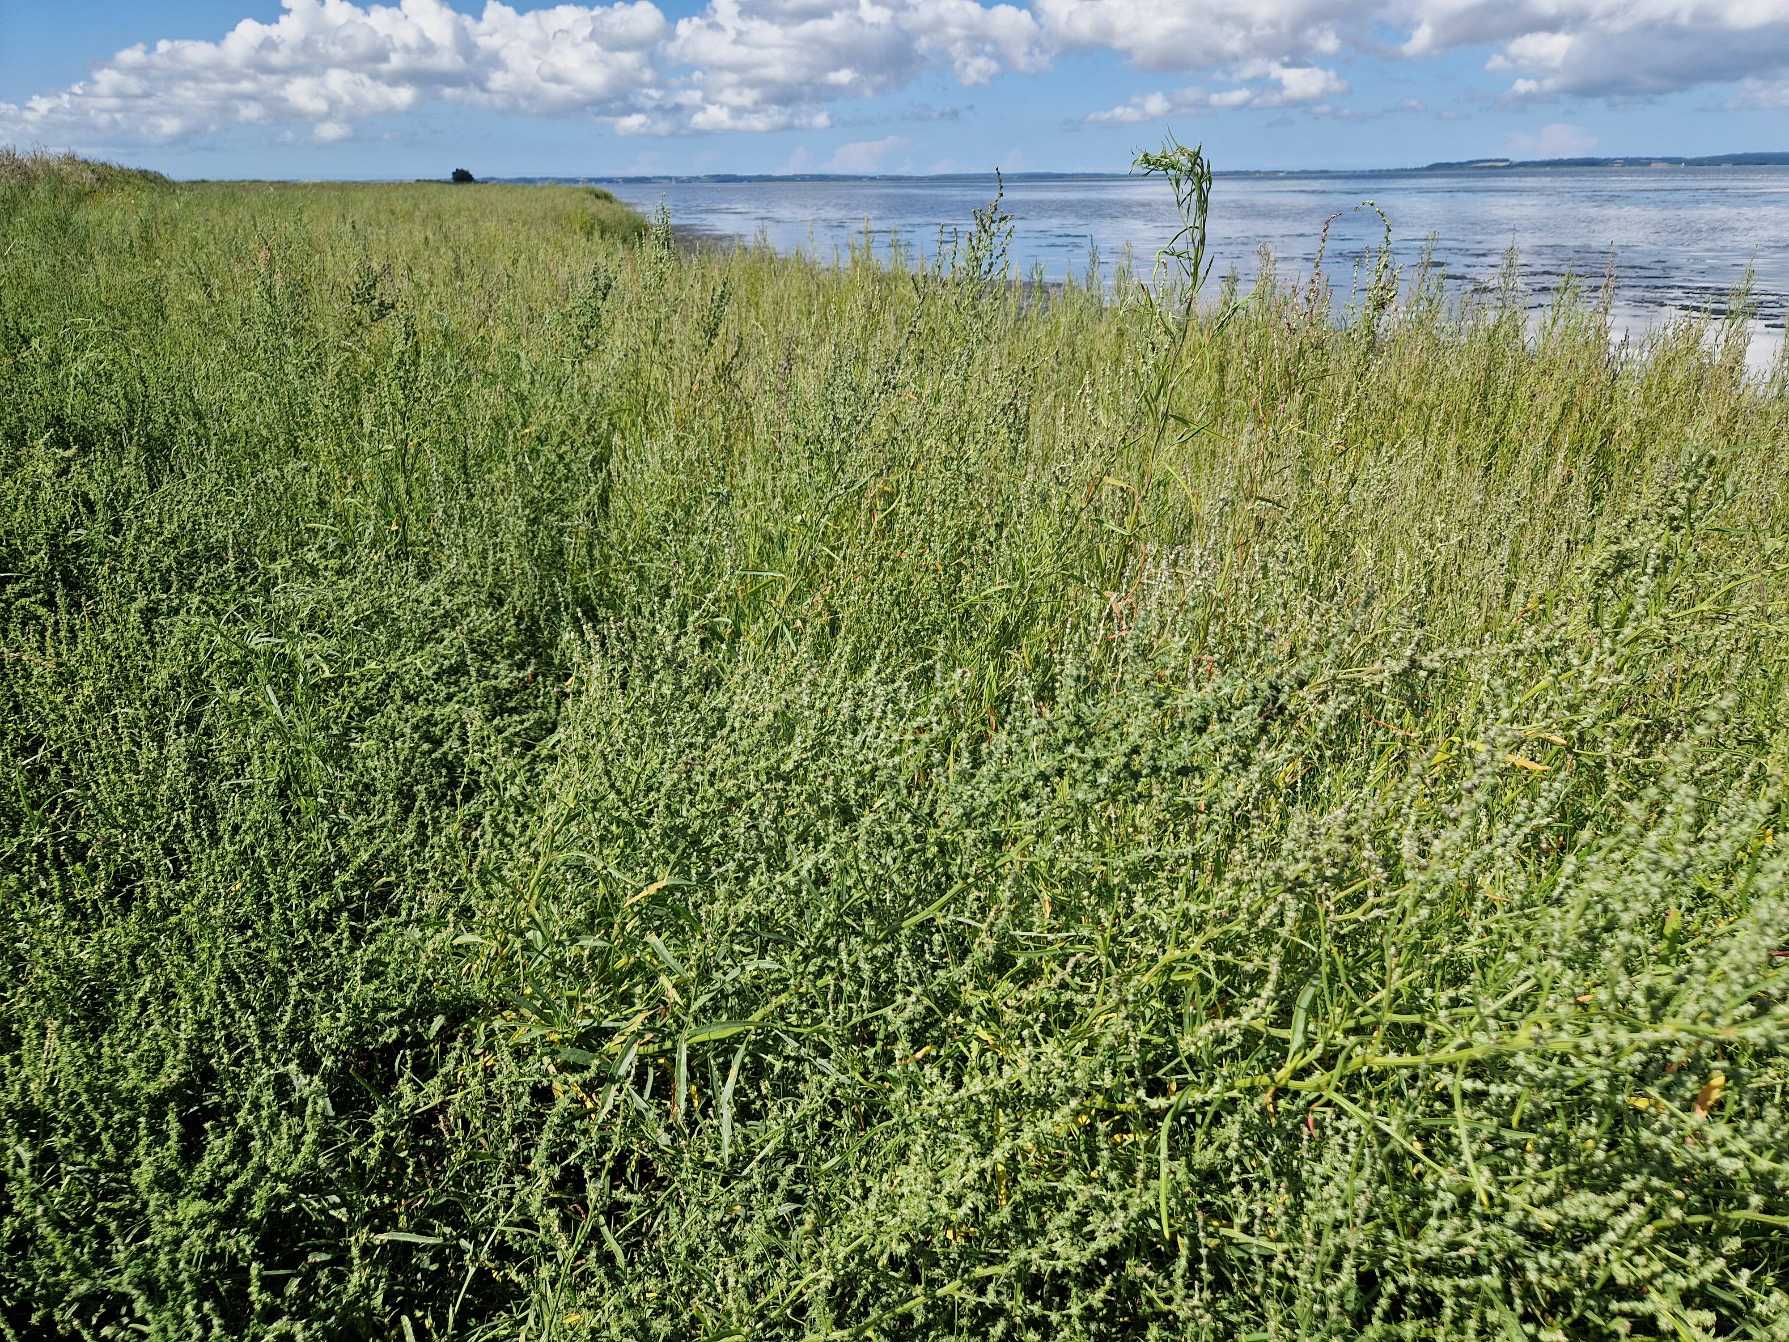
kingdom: Plantae
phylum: Tracheophyta
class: Magnoliopsida
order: Caryophyllales
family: Amaranthaceae
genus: Atriplex
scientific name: Atriplex littoralis
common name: Strand-mælde
